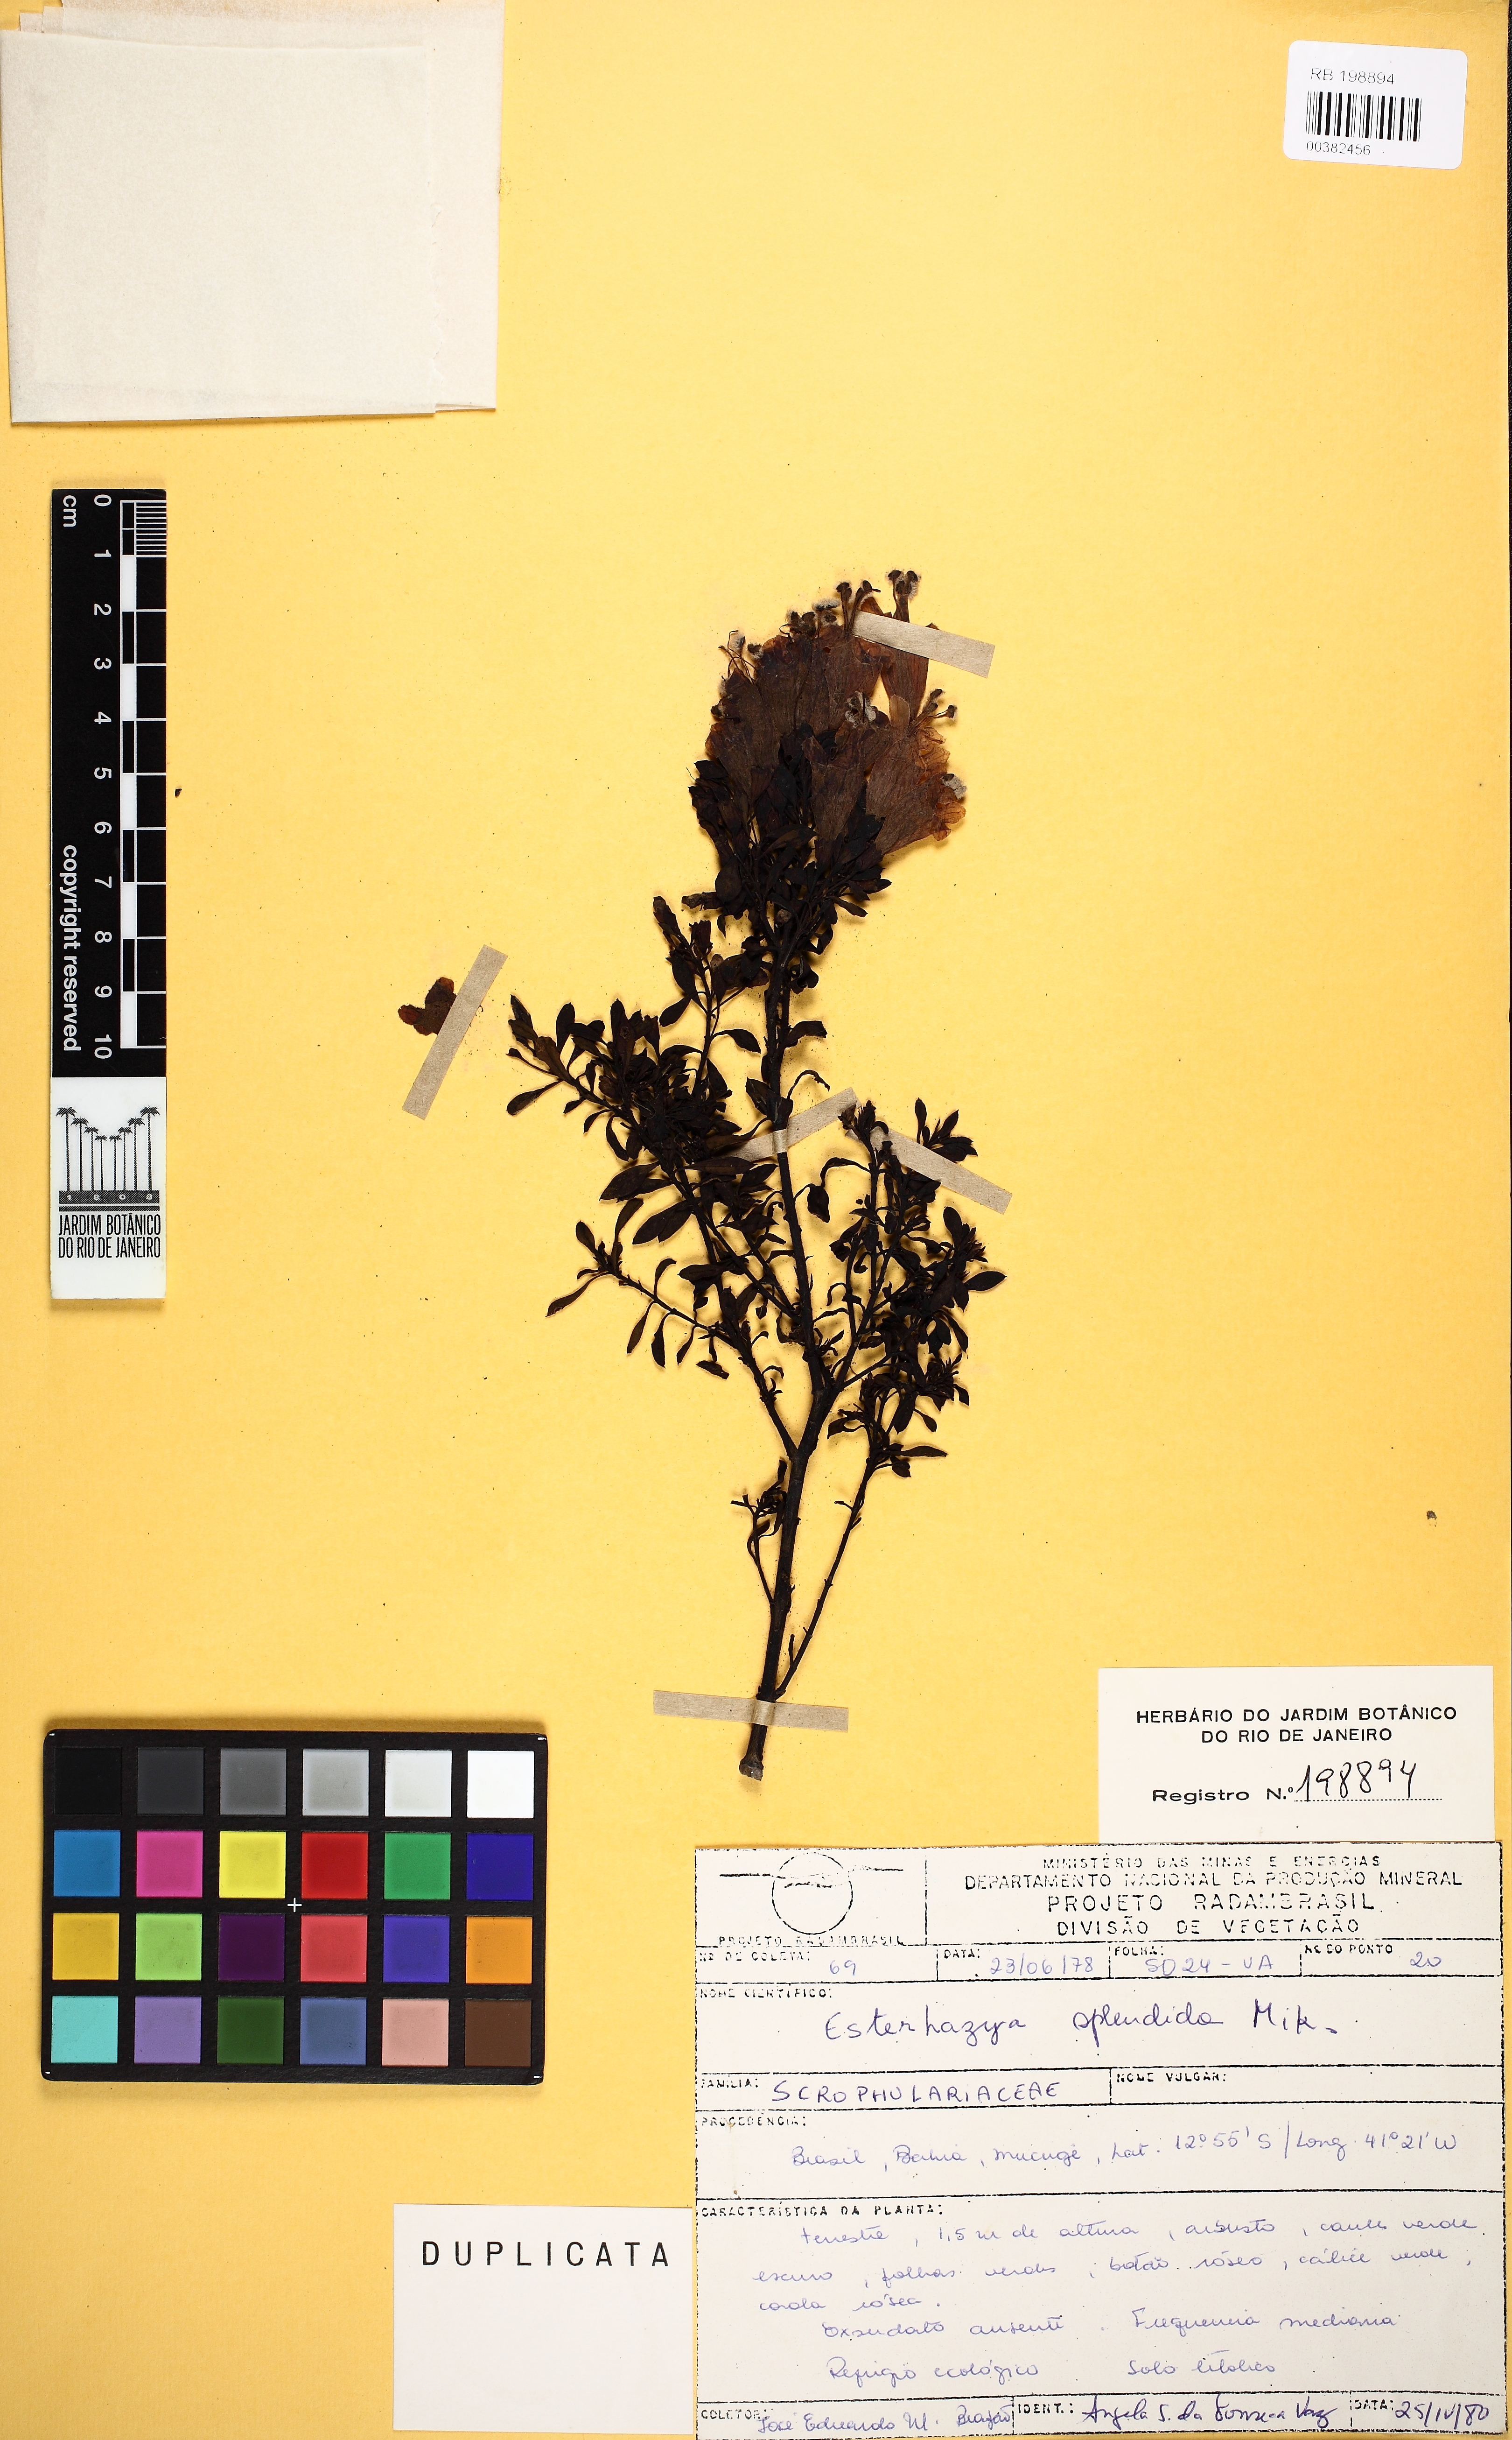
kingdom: Plantae
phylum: Tracheophyta
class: Magnoliopsida
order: Lamiales
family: Orobanchaceae
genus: Esterhazya
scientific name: Esterhazya splendida
